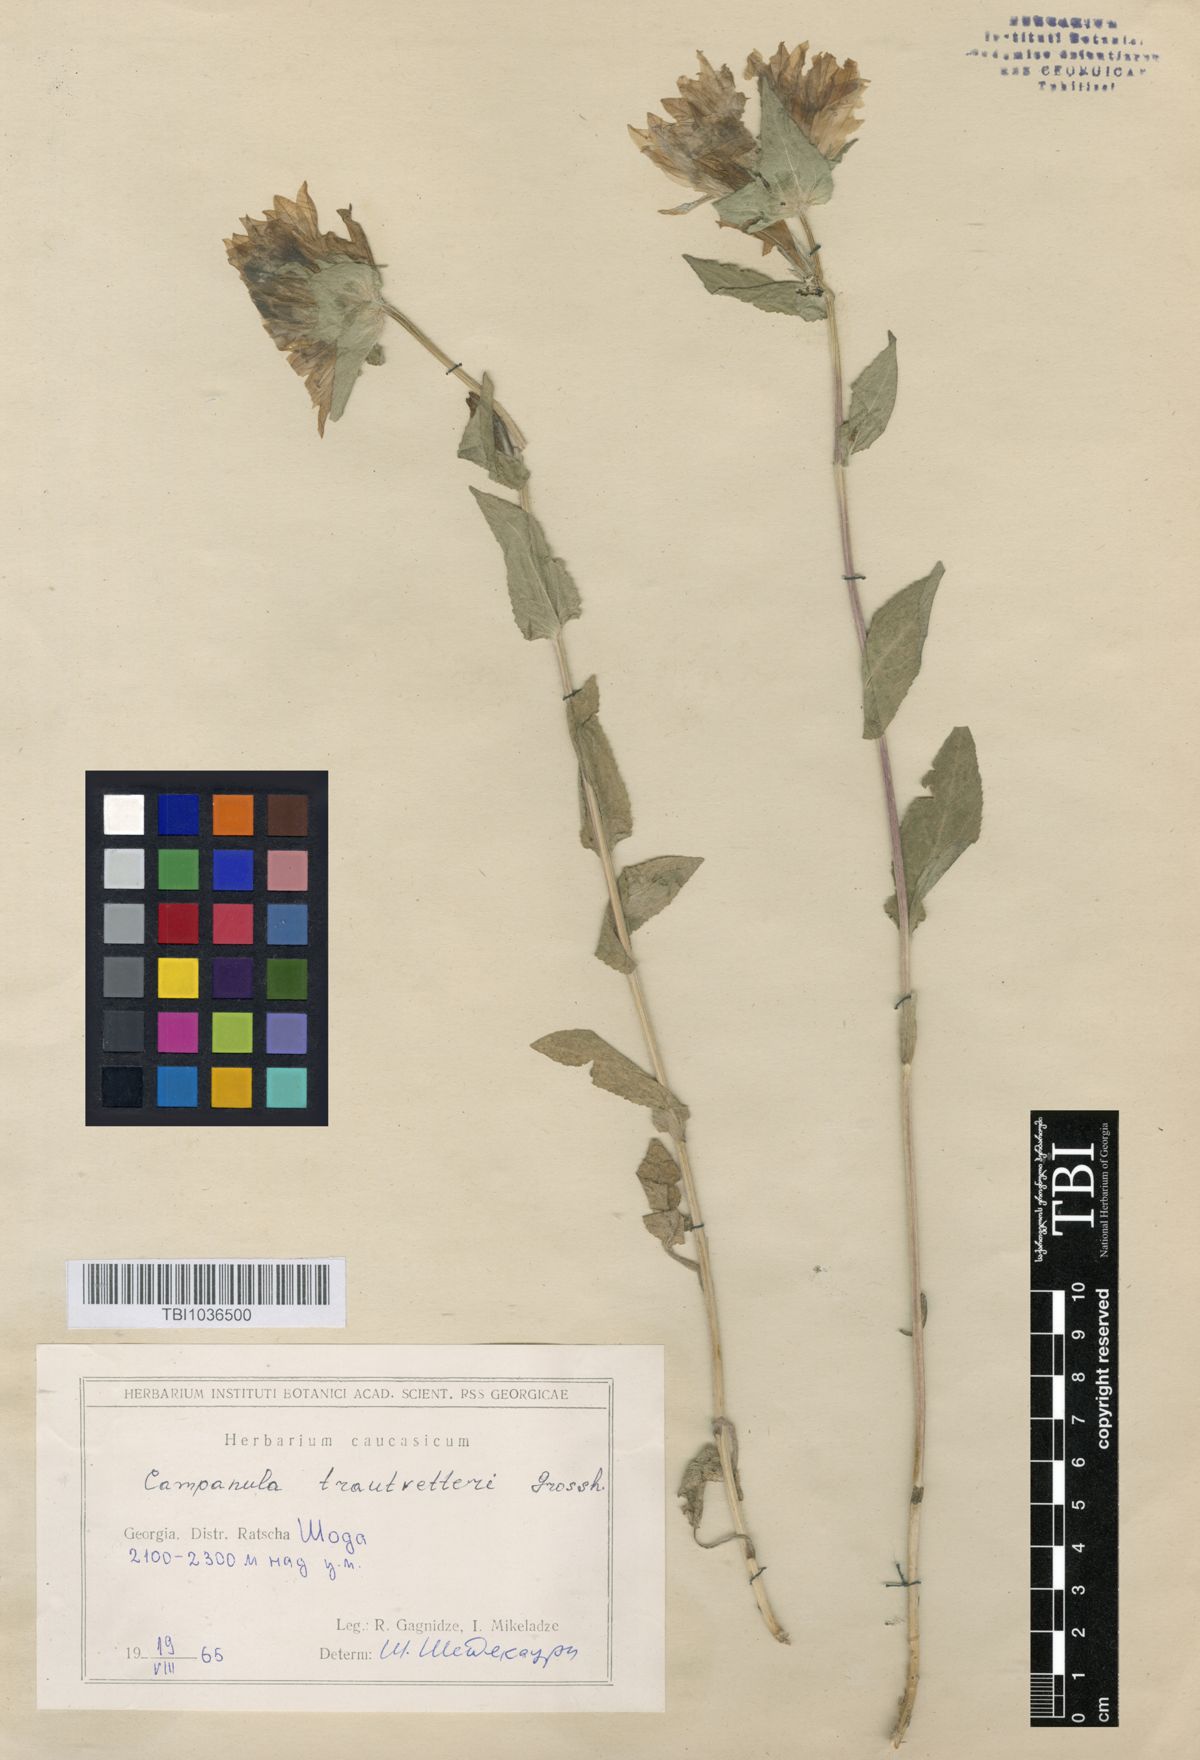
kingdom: Plantae
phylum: Tracheophyta
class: Magnoliopsida
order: Asterales
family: Campanulaceae
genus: Campanula
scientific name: Campanula glomerata
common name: Clustered bellflower
